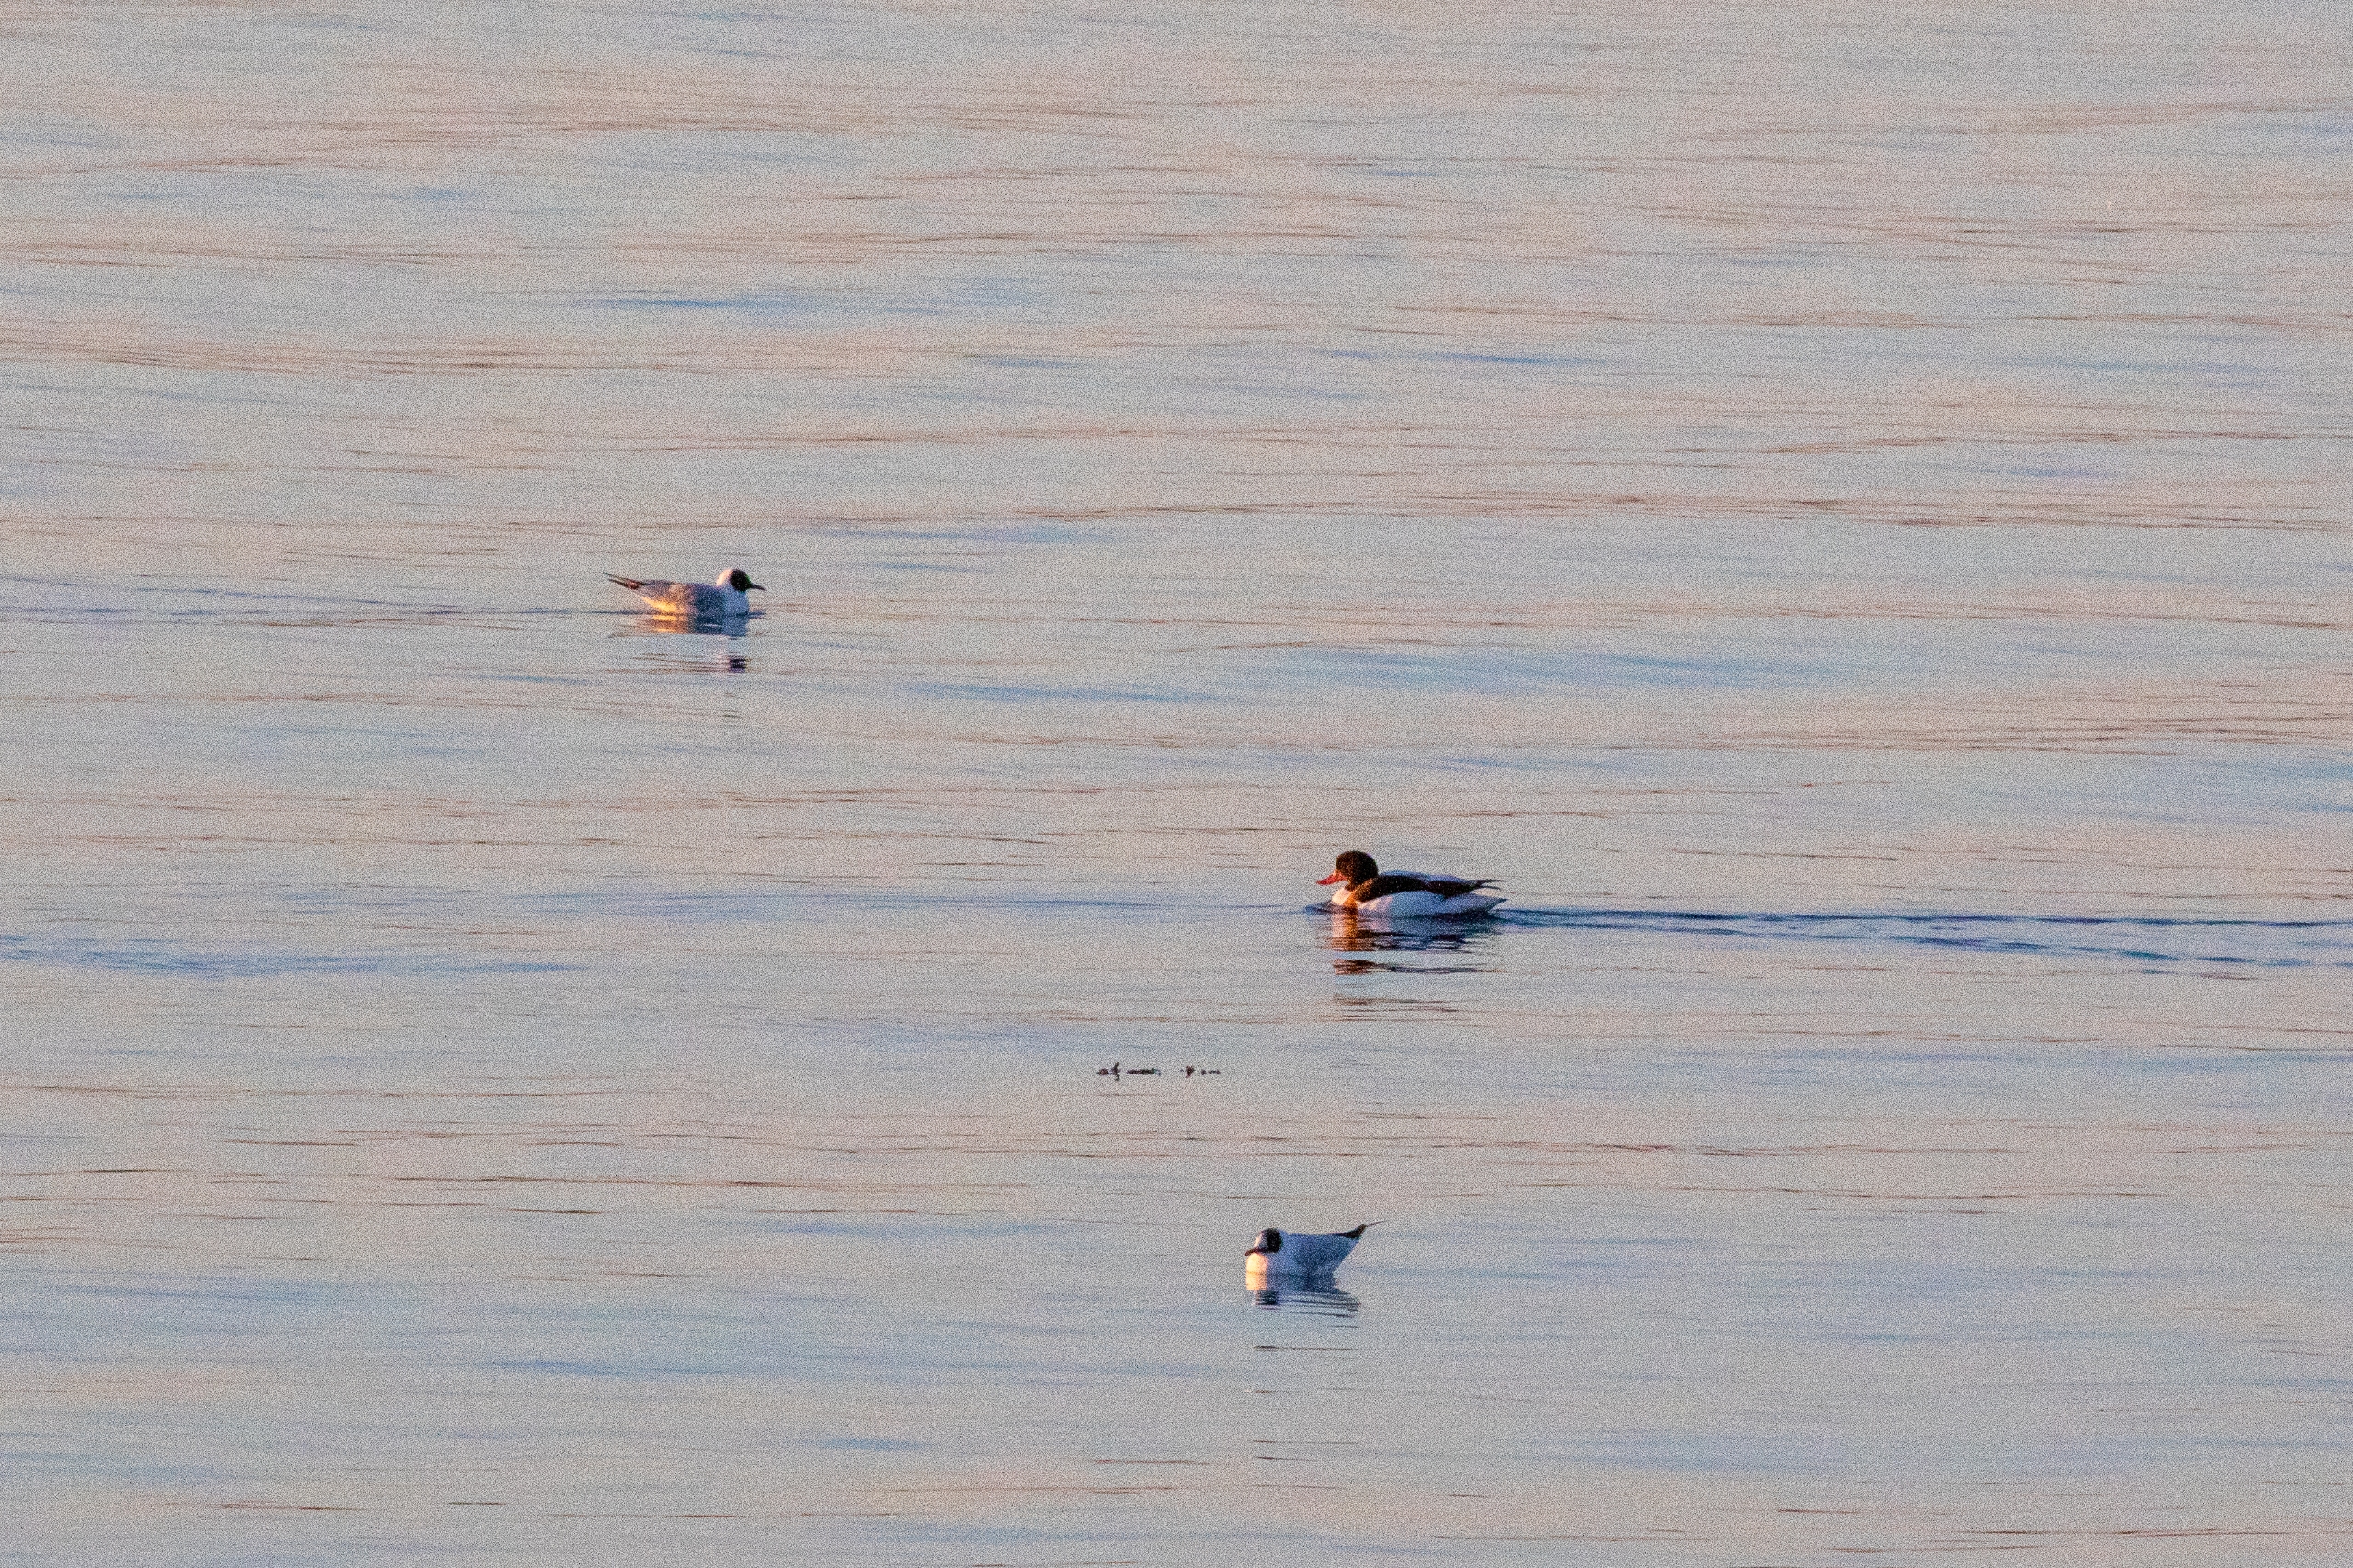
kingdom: Animalia
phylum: Chordata
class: Aves
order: Anseriformes
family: Anatidae
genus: Tadorna
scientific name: Tadorna tadorna
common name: Gravand
